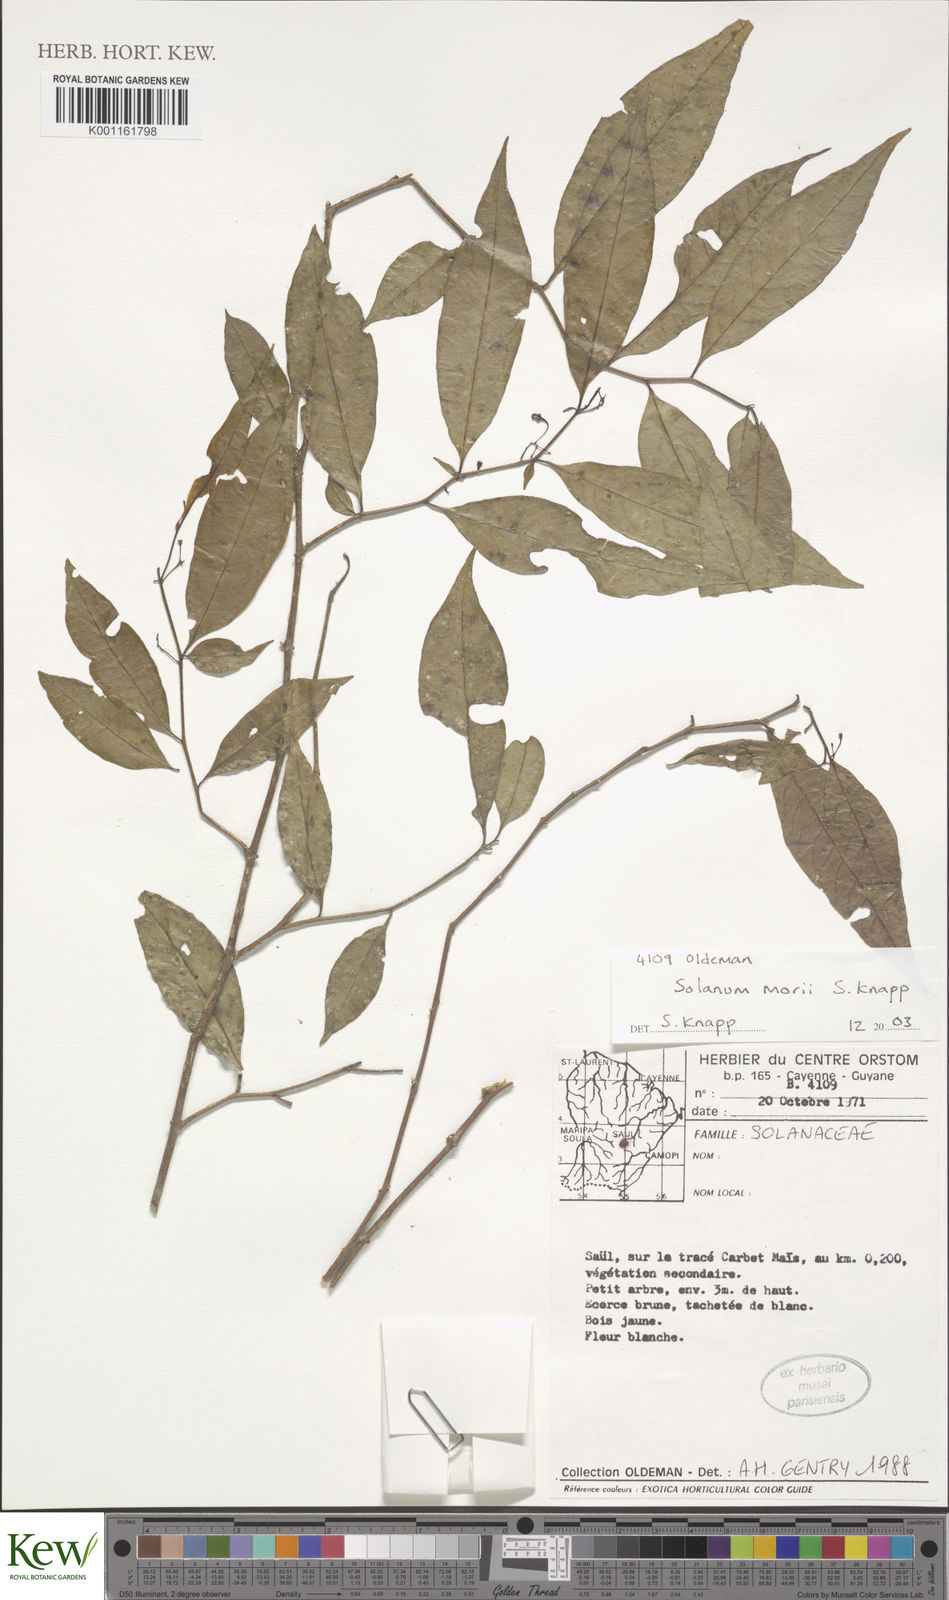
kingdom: Plantae
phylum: Tracheophyta
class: Magnoliopsida
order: Solanales
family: Solanaceae
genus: Solanum
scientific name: Solanum morii
